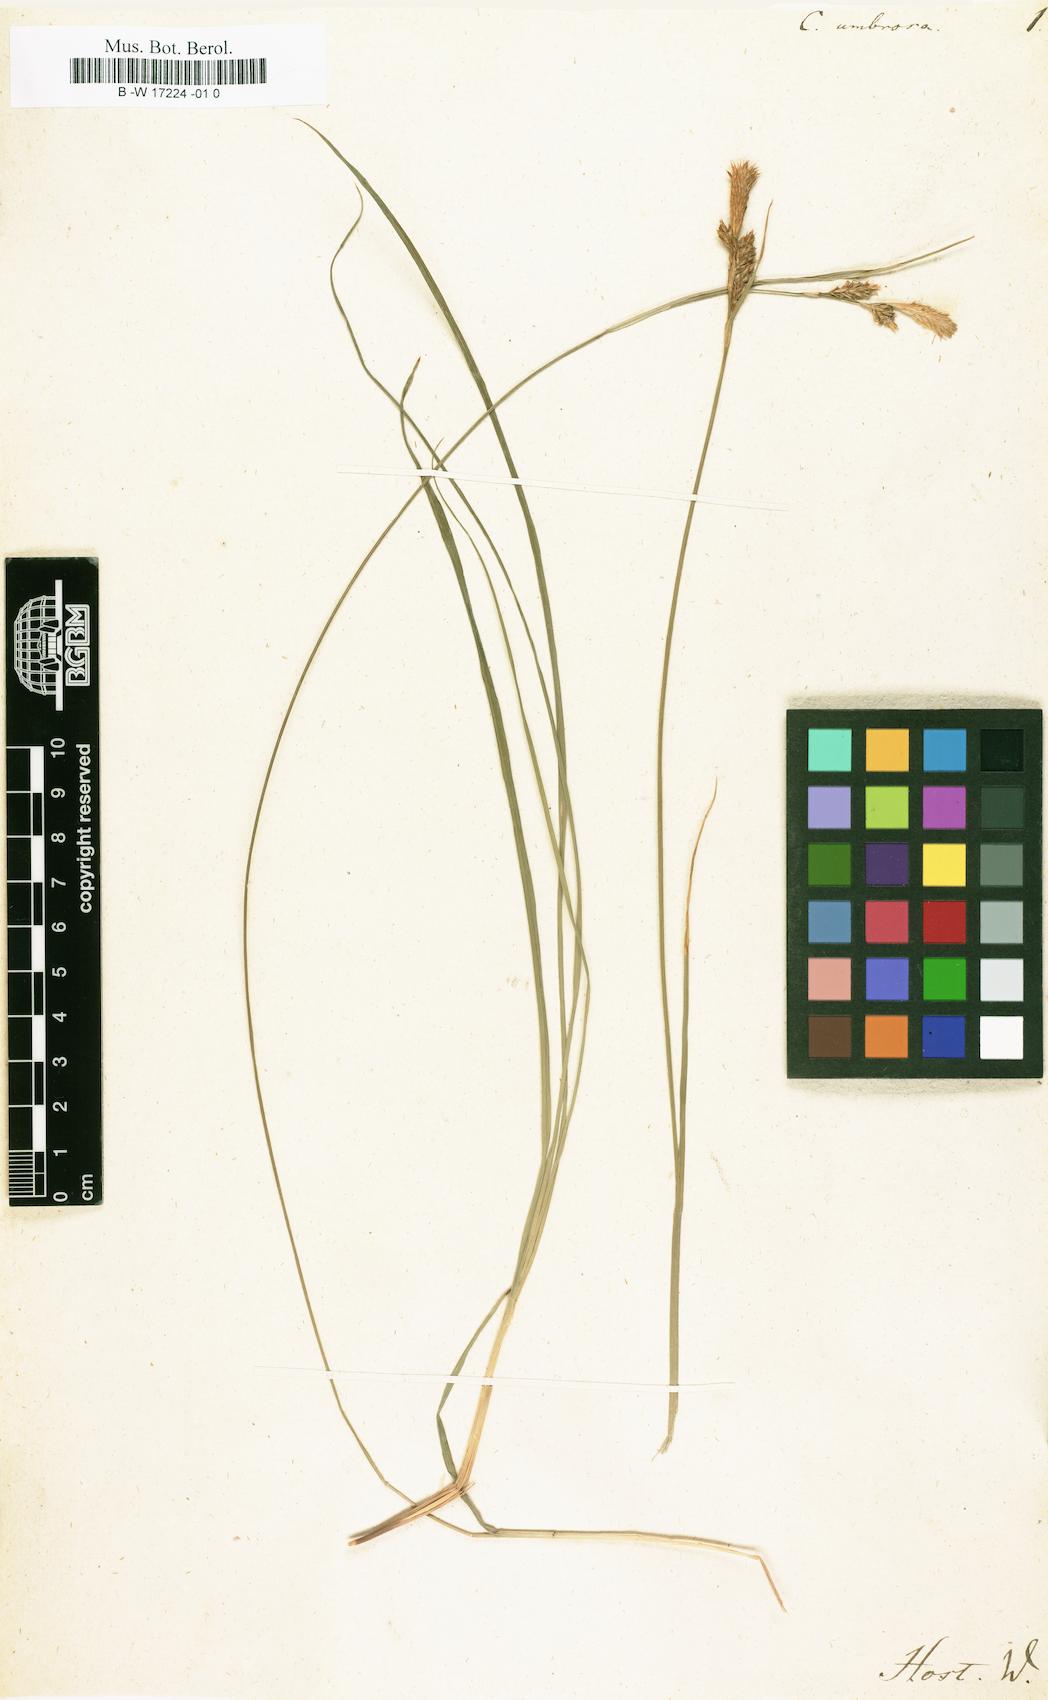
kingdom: Plantae
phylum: Tracheophyta
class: Liliopsida
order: Poales
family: Cyperaceae
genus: Carex
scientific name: Carex umbrosa
